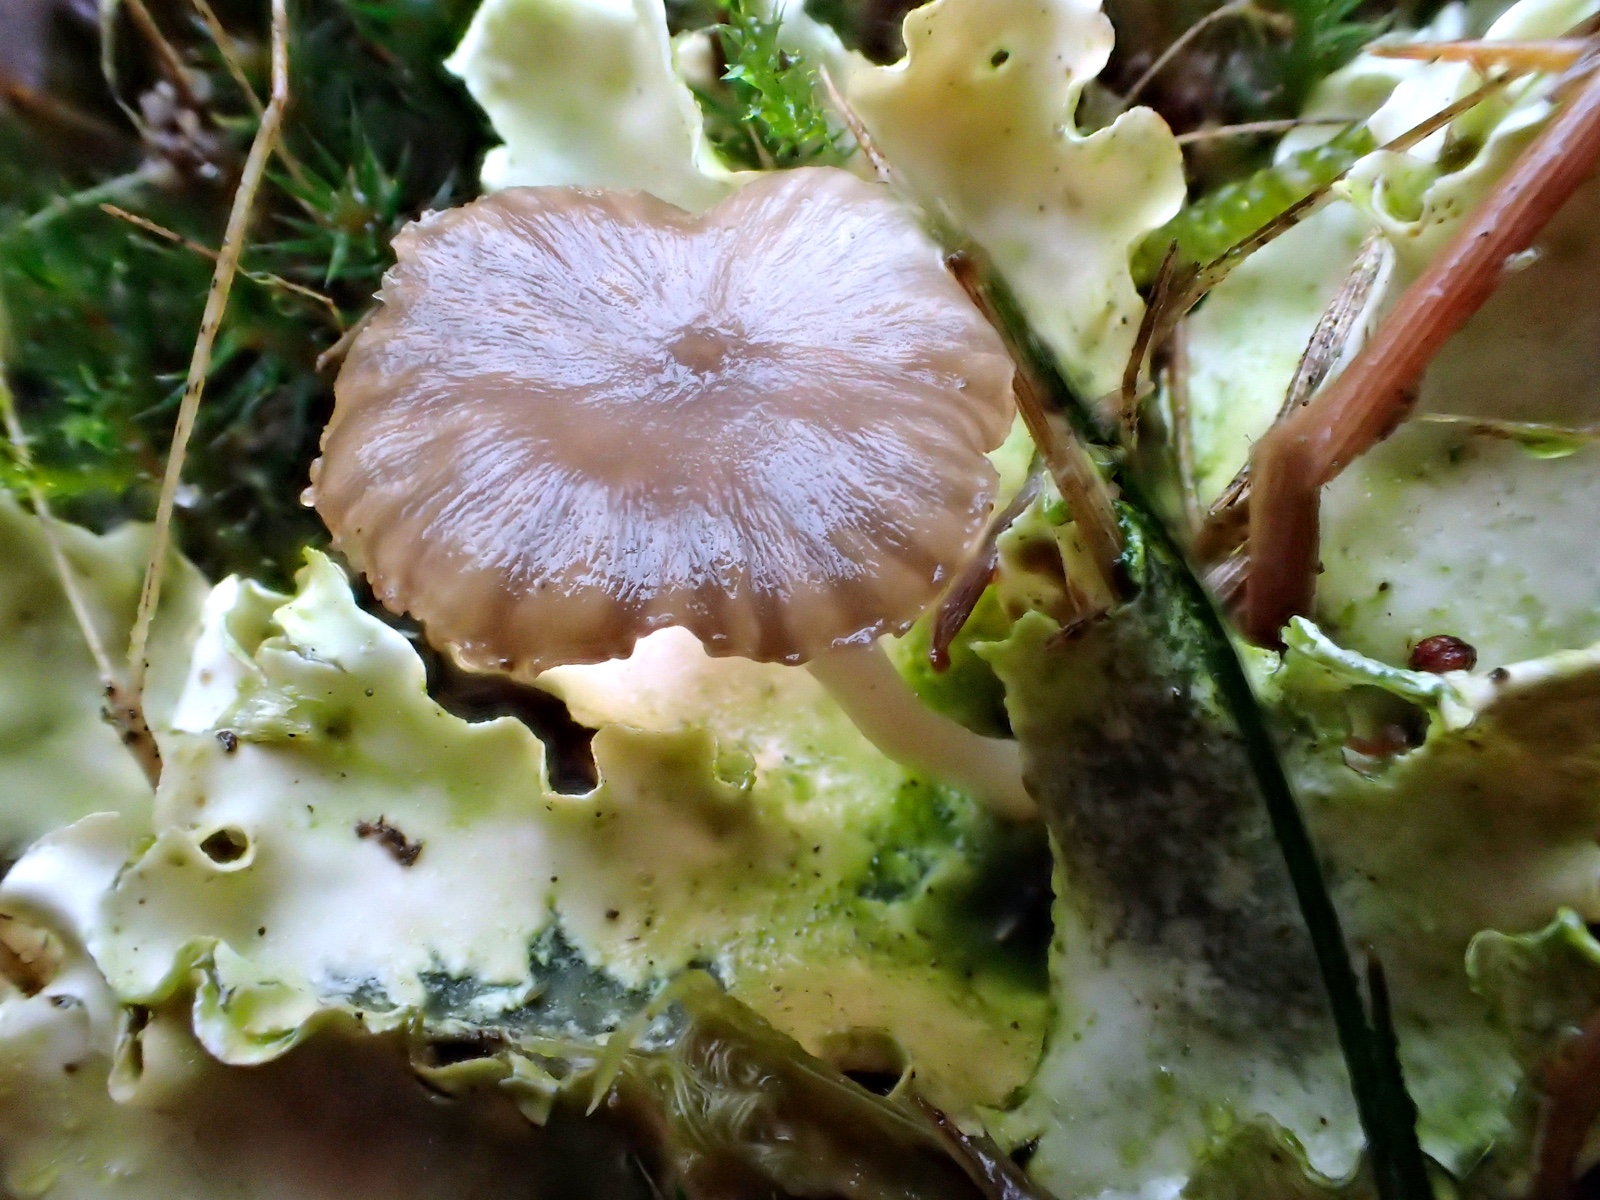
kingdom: Fungi
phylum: Basidiomycota
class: Agaricomycetes
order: Agaricales
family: Hygrophoraceae
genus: Arrhenia
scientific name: Arrhenia peltigerina
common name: skjoldlav-fontænehat
